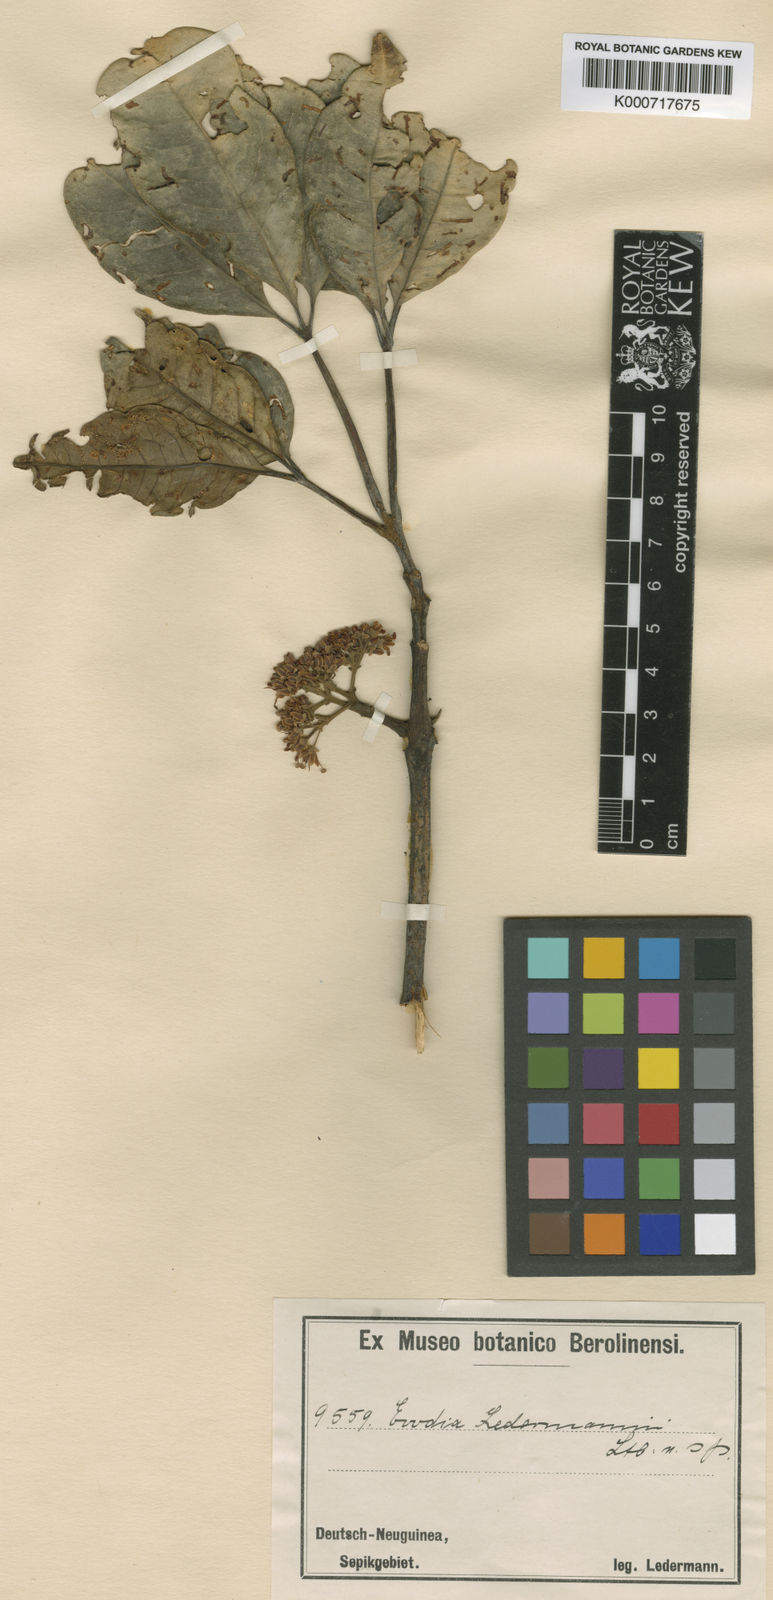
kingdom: Plantae
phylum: Tracheophyta
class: Magnoliopsida
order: Sapindales
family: Rutaceae
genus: Melicope
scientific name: Melicope pachypoda
